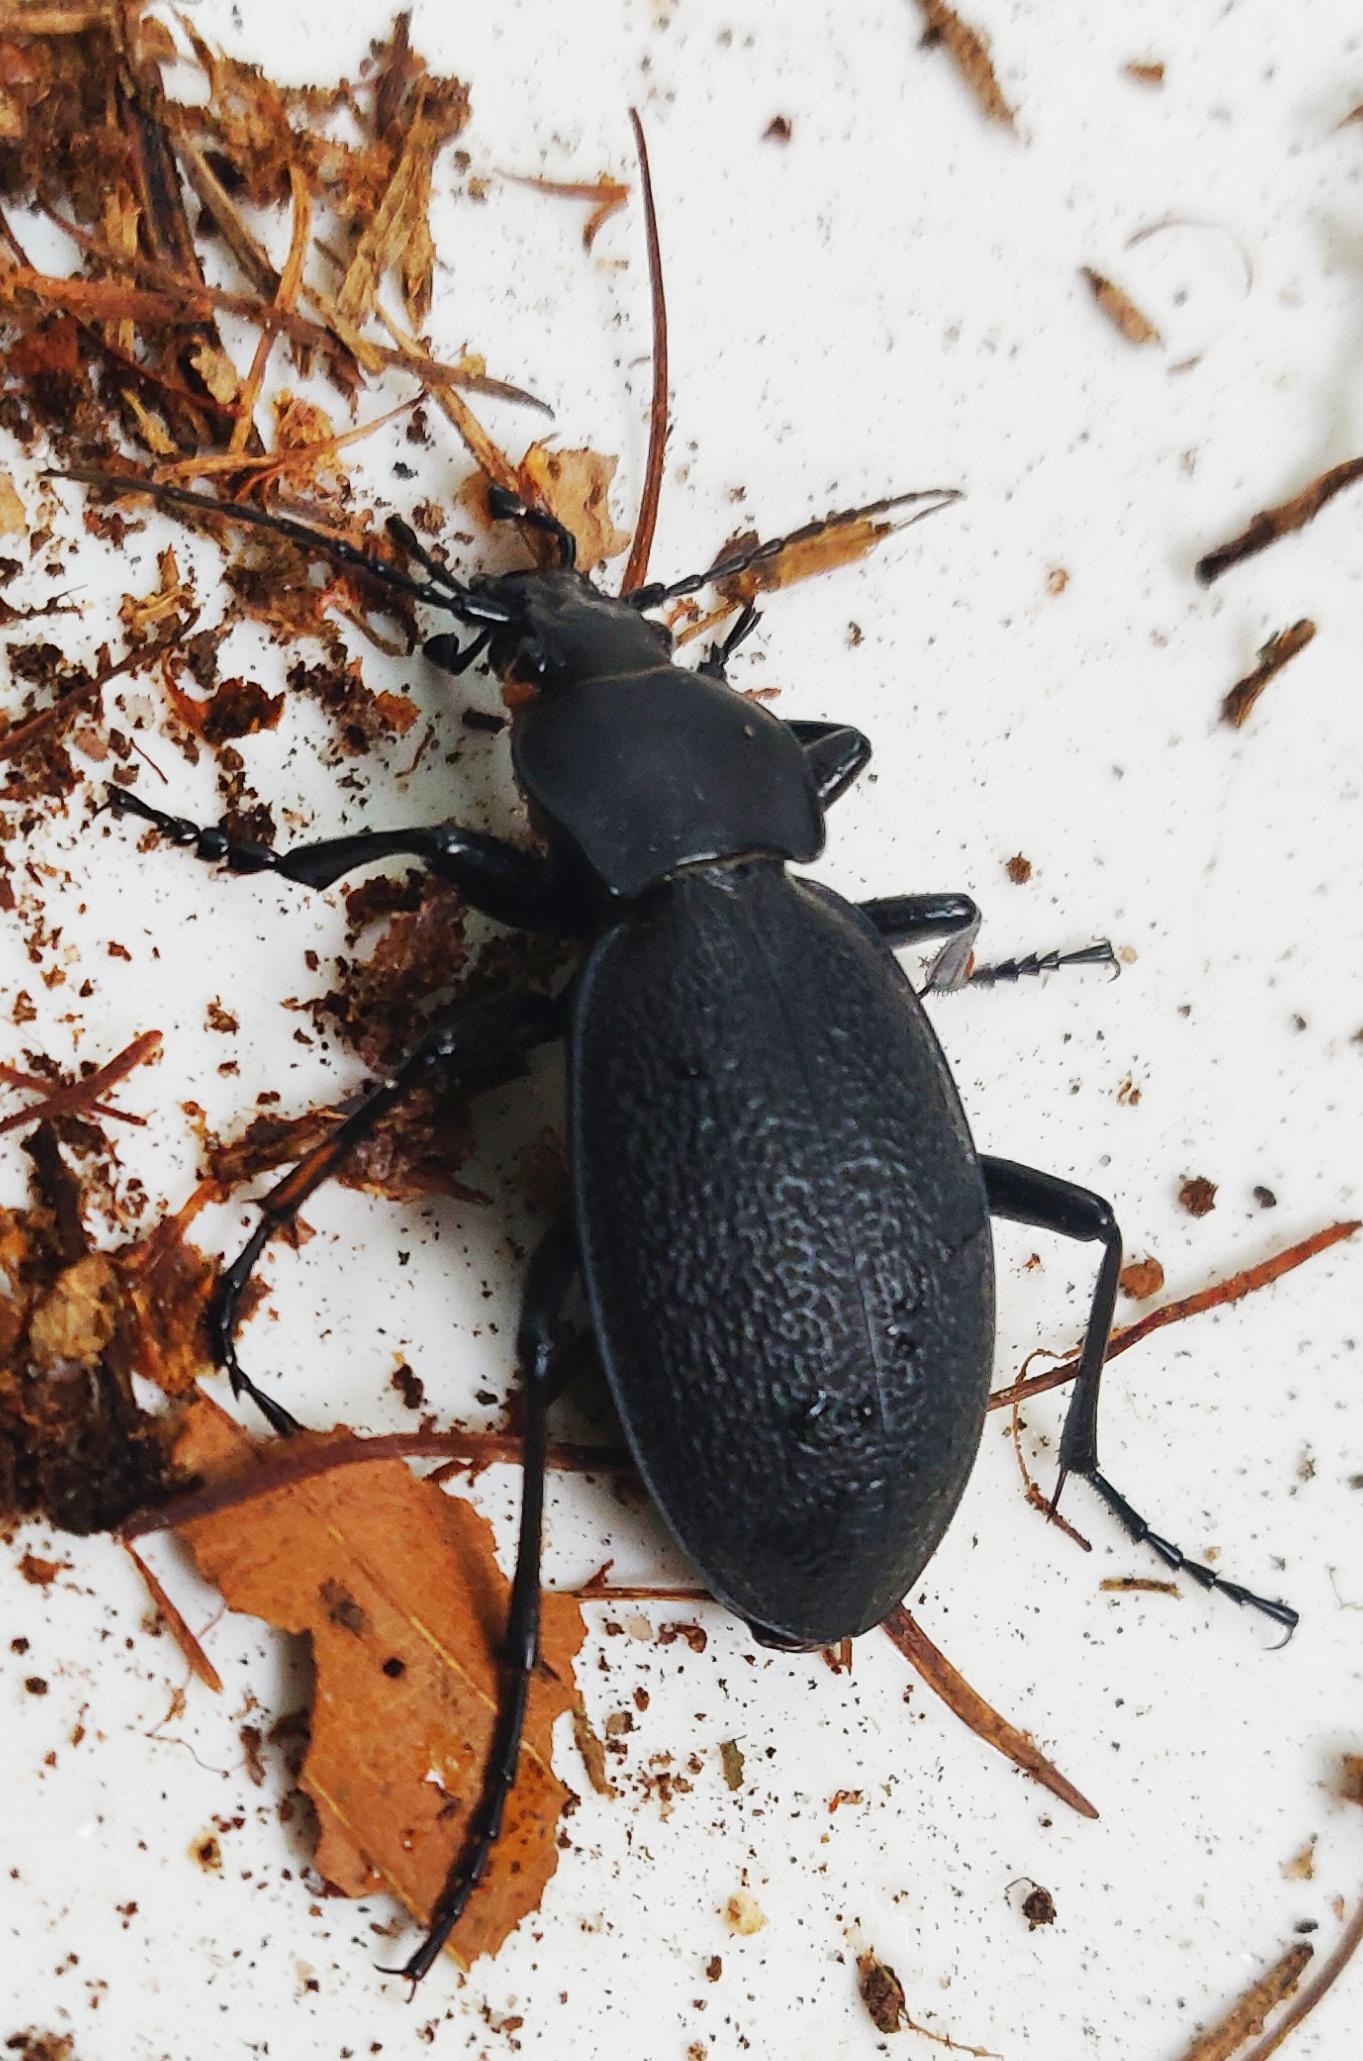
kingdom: Animalia
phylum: Arthropoda
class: Insecta
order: Coleoptera
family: Carabidae
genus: Carabus
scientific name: Carabus coriaceus
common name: Læderløber
